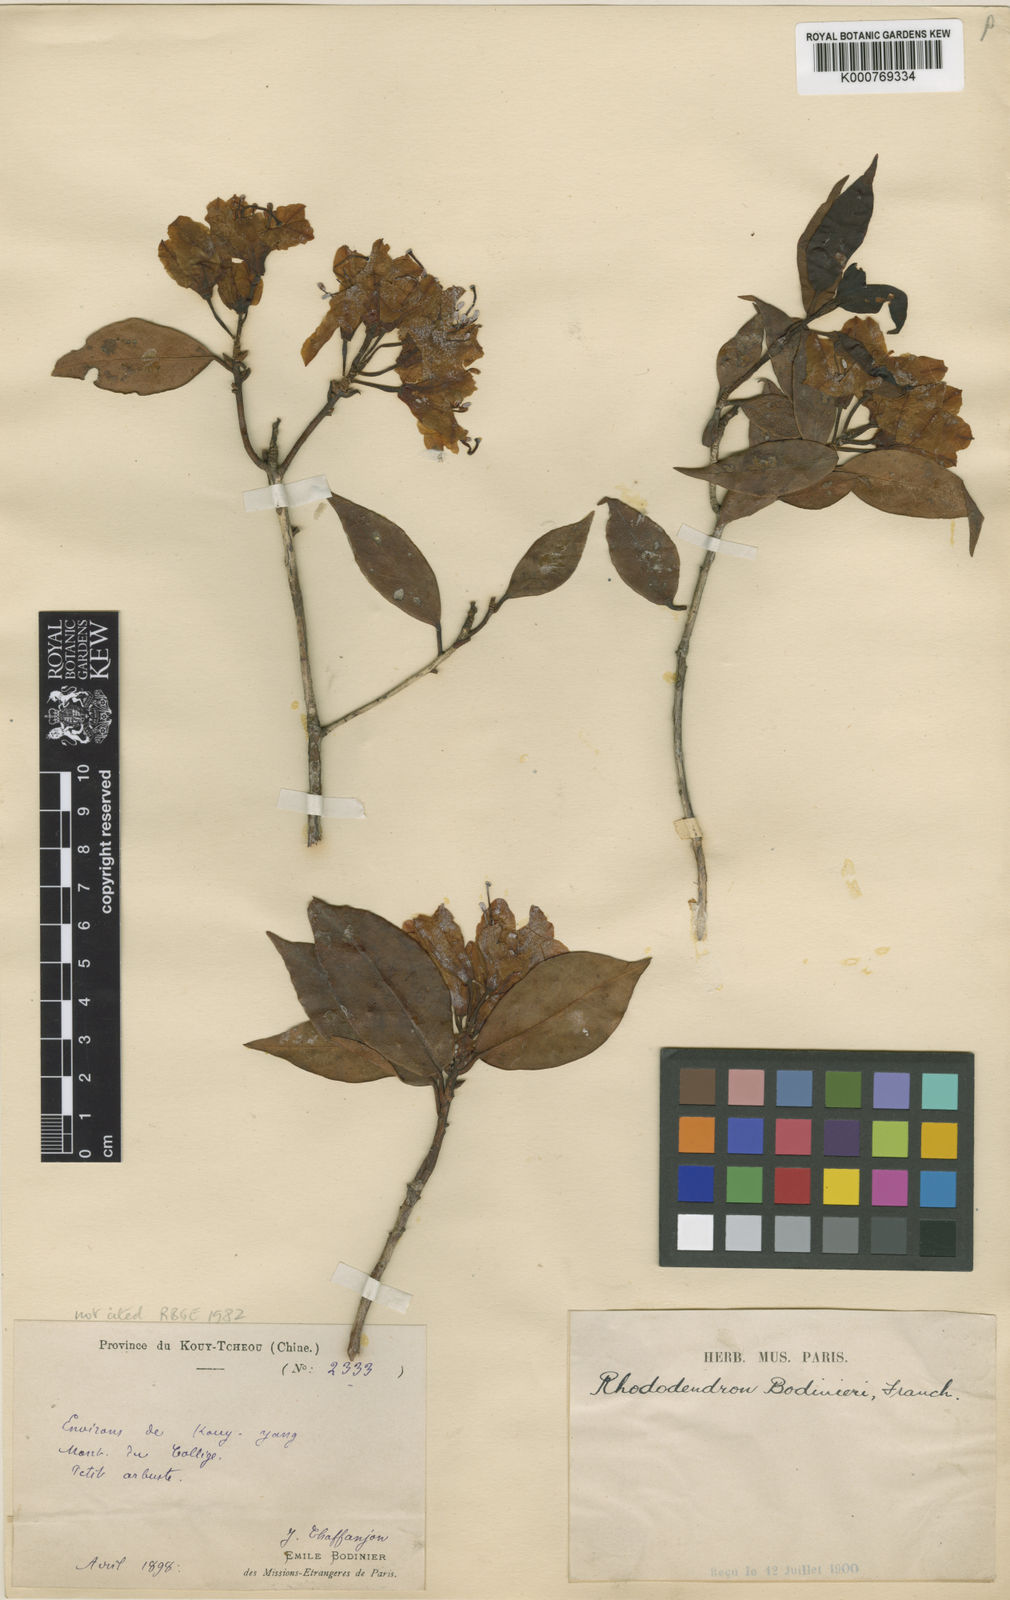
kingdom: Plantae
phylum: Tracheophyta
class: Magnoliopsida
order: Ericales
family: Ericaceae
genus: Rhododendron
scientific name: Rhododendron rigidum
